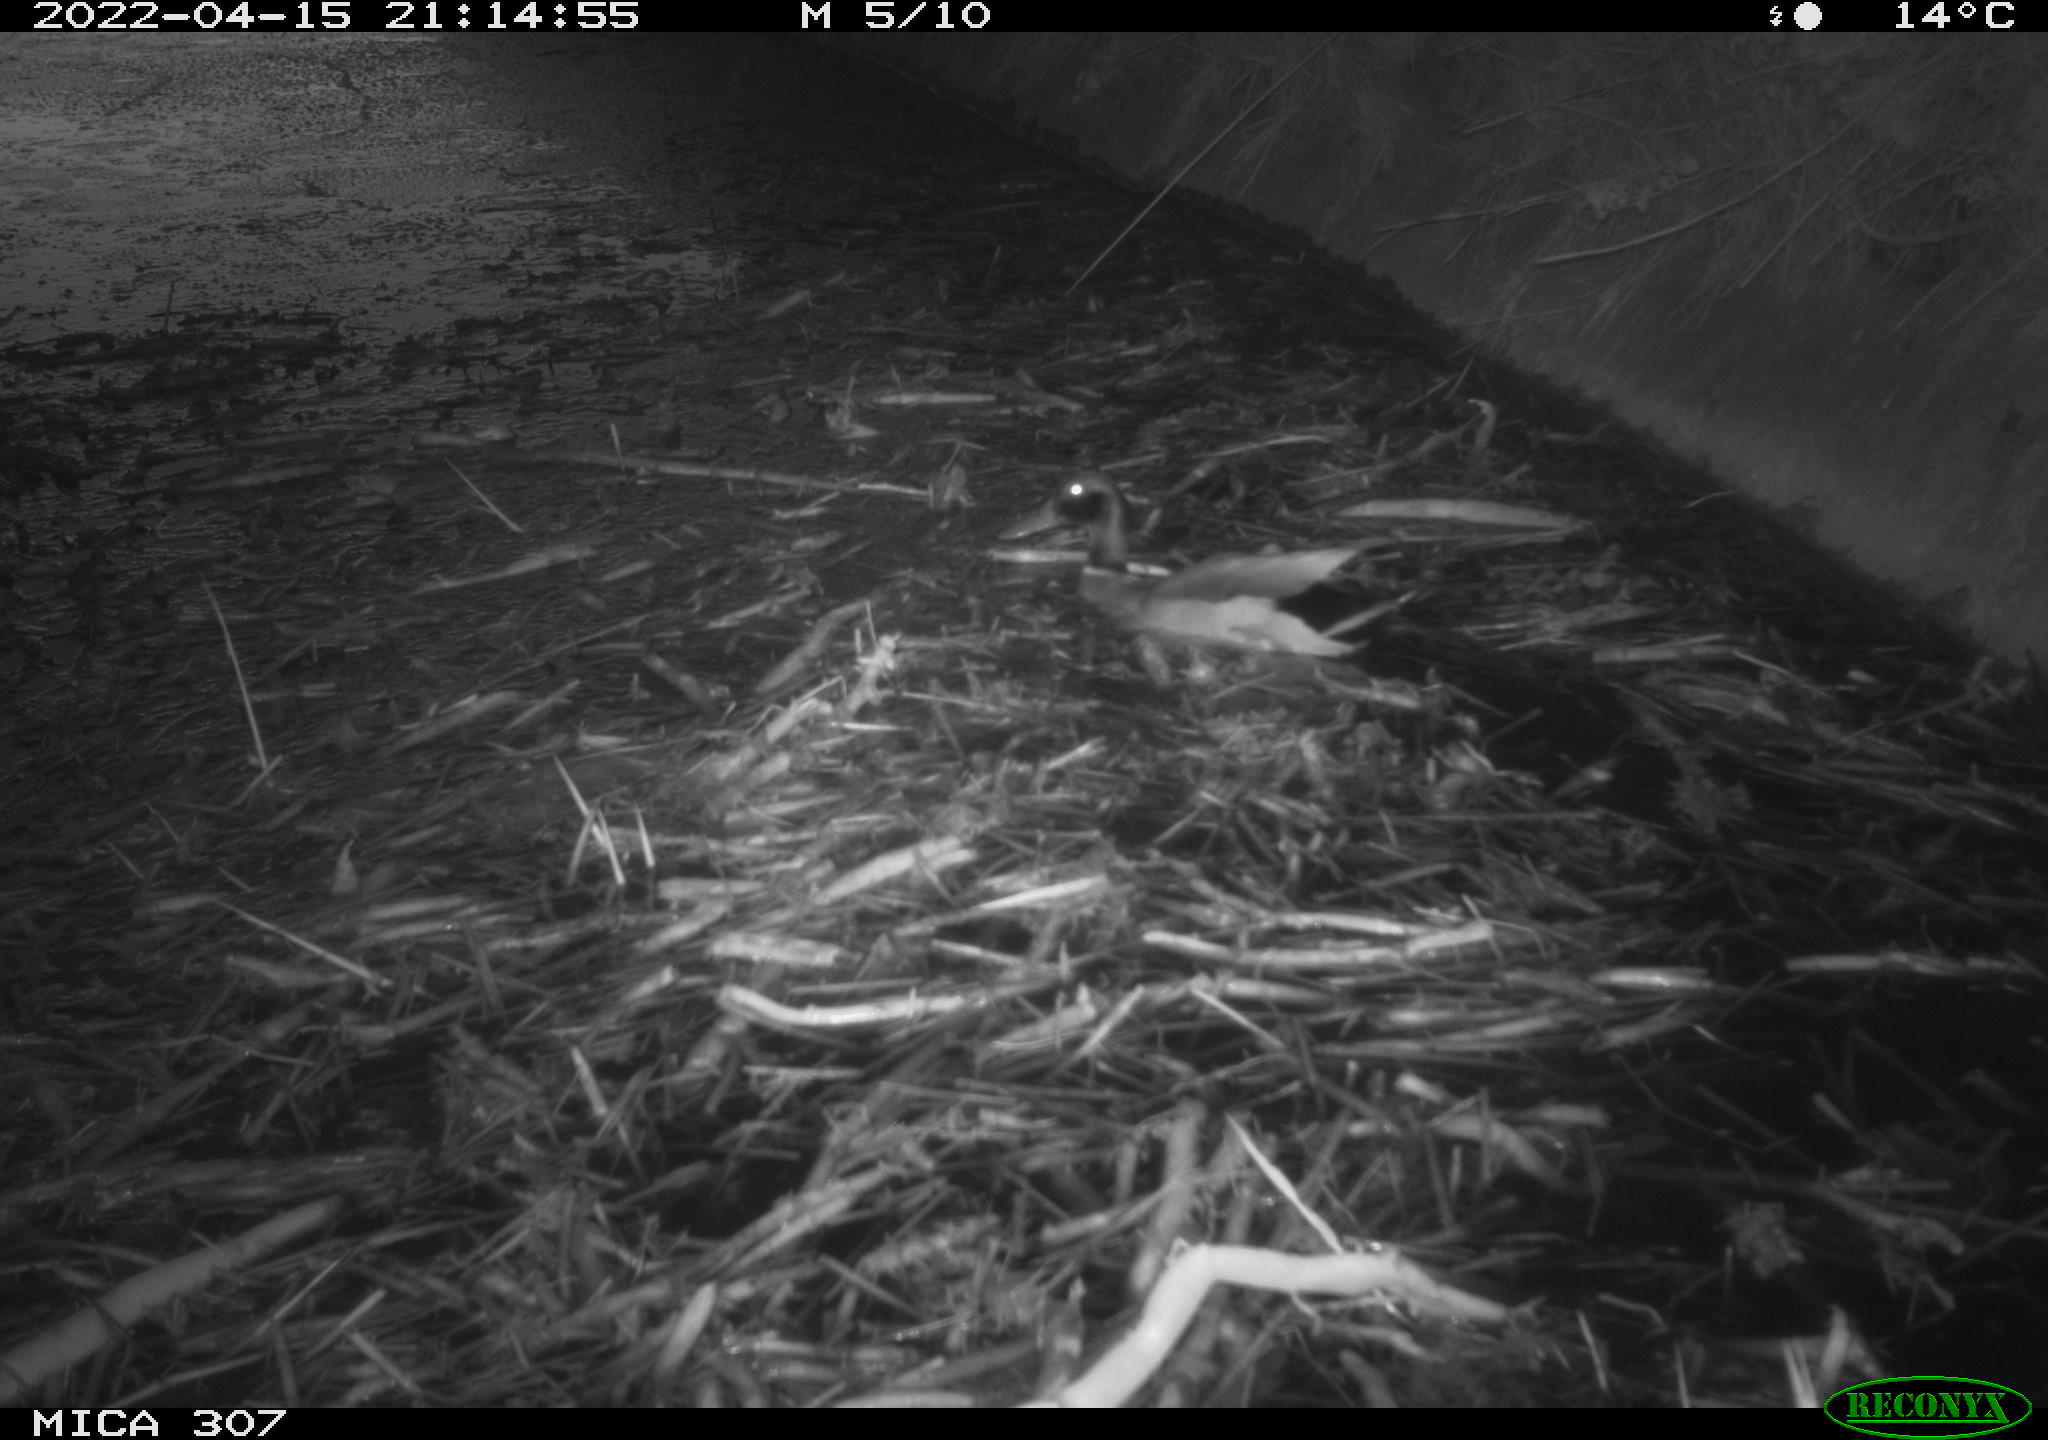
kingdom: Animalia
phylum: Chordata
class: Aves
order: Anseriformes
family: Anatidae
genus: Anas
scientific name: Anas platyrhynchos
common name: Mallard
